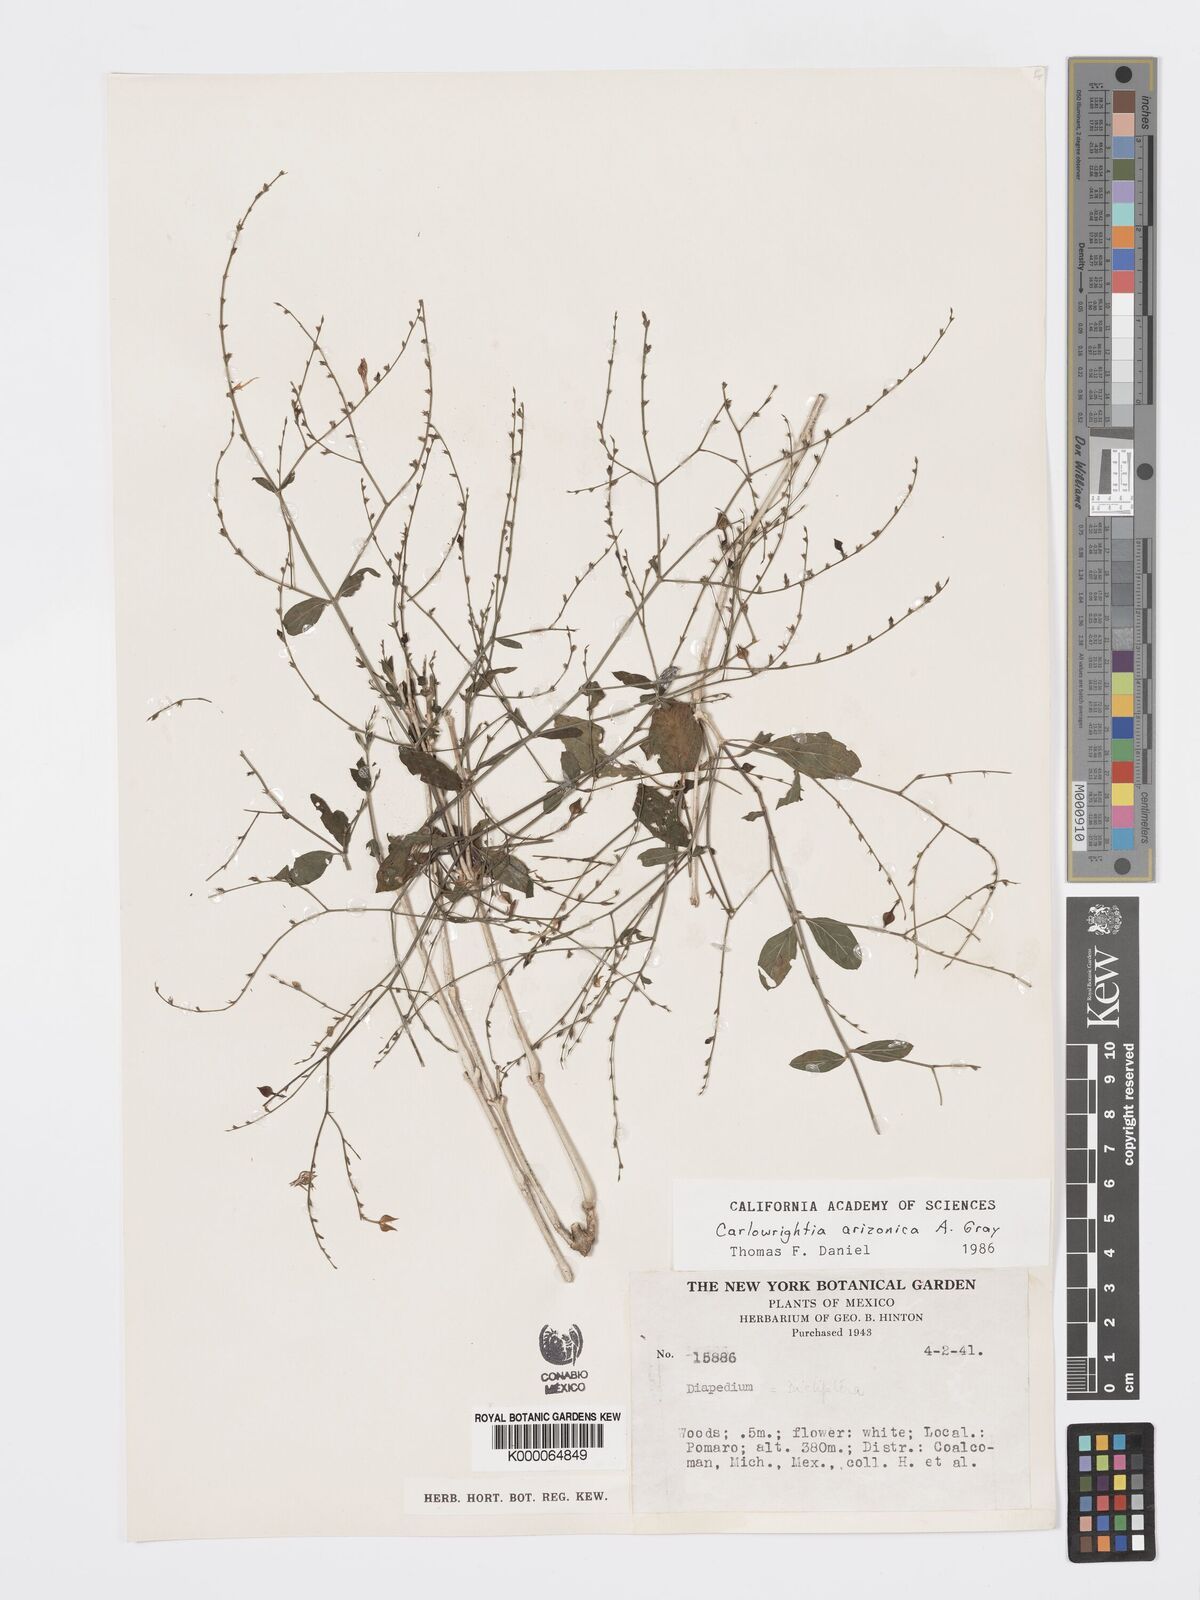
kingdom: Plantae
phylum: Tracheophyta
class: Magnoliopsida
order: Lamiales
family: Acanthaceae
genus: Carlowrightia
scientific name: Carlowrightia arizonica
